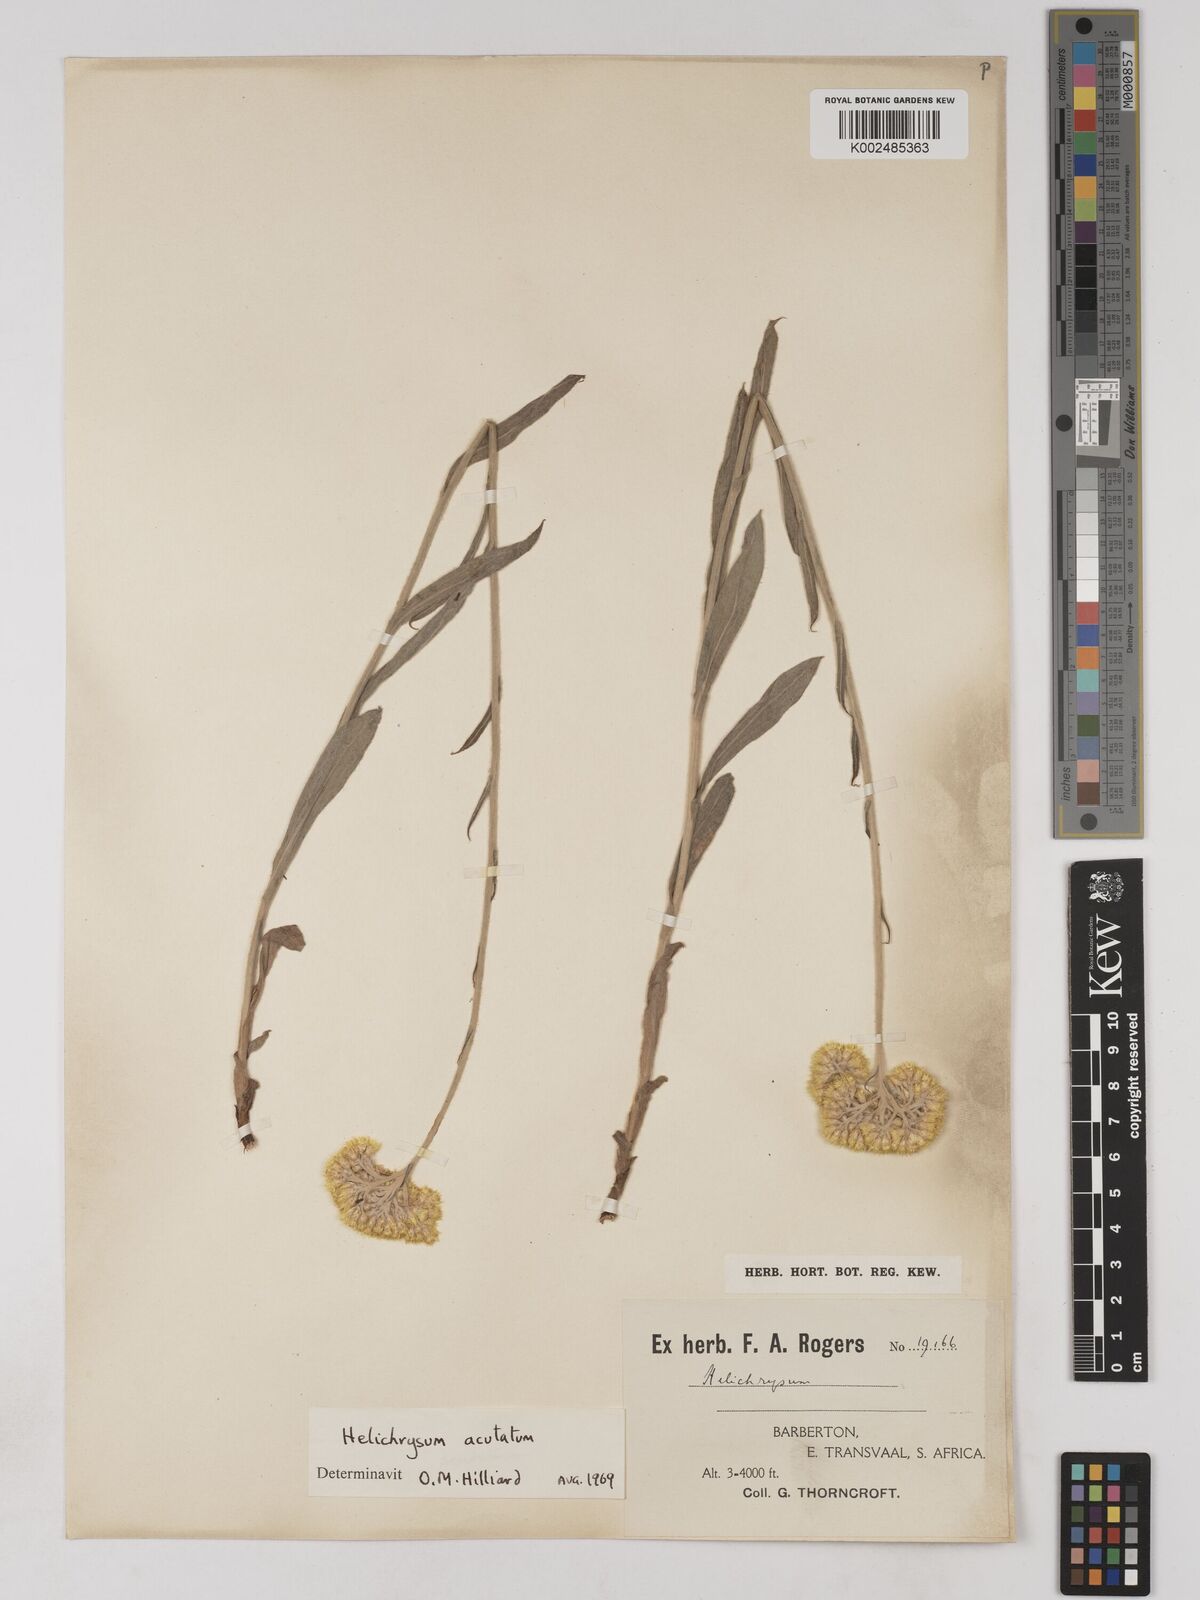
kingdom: Plantae
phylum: Tracheophyta
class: Magnoliopsida
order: Asterales
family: Asteraceae
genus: Helichrysum
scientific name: Helichrysum acutatum
